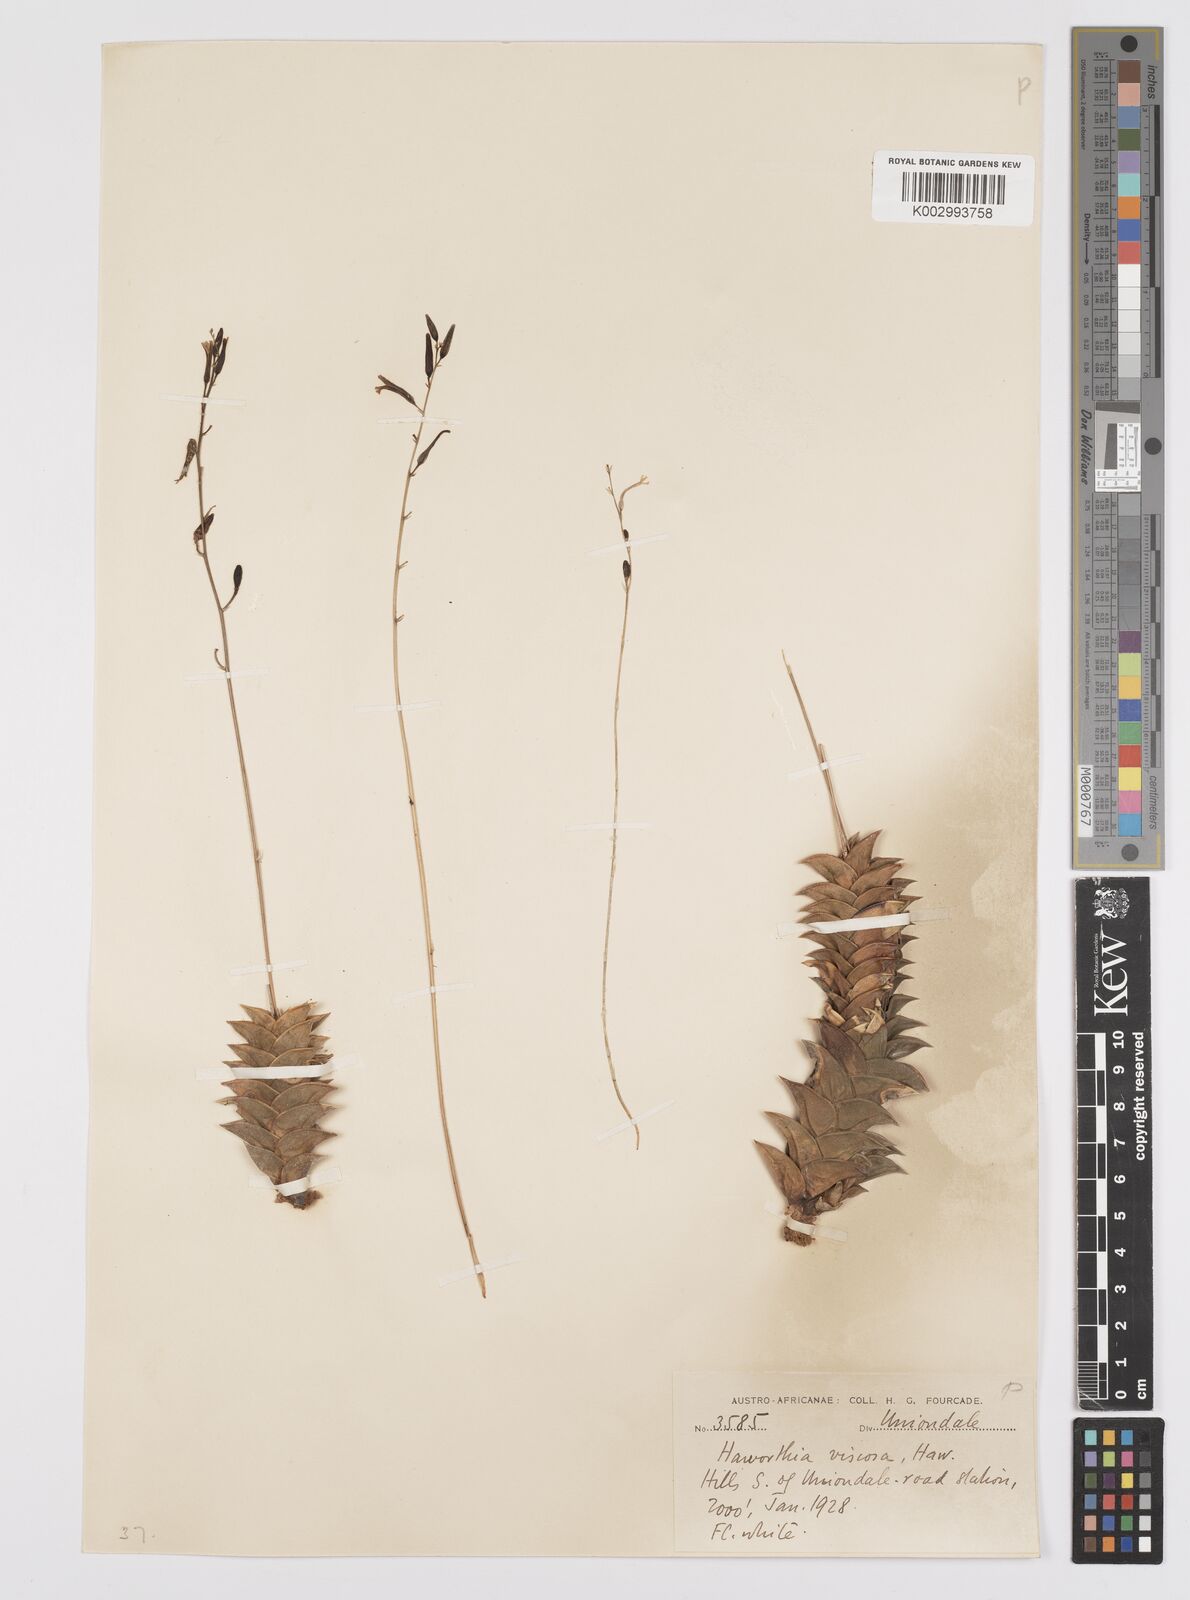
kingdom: Plantae
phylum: Tracheophyta
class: Liliopsida
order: Asparagales
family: Asphodelaceae
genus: Haworthiopsis
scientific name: Haworthiopsis viscosa
